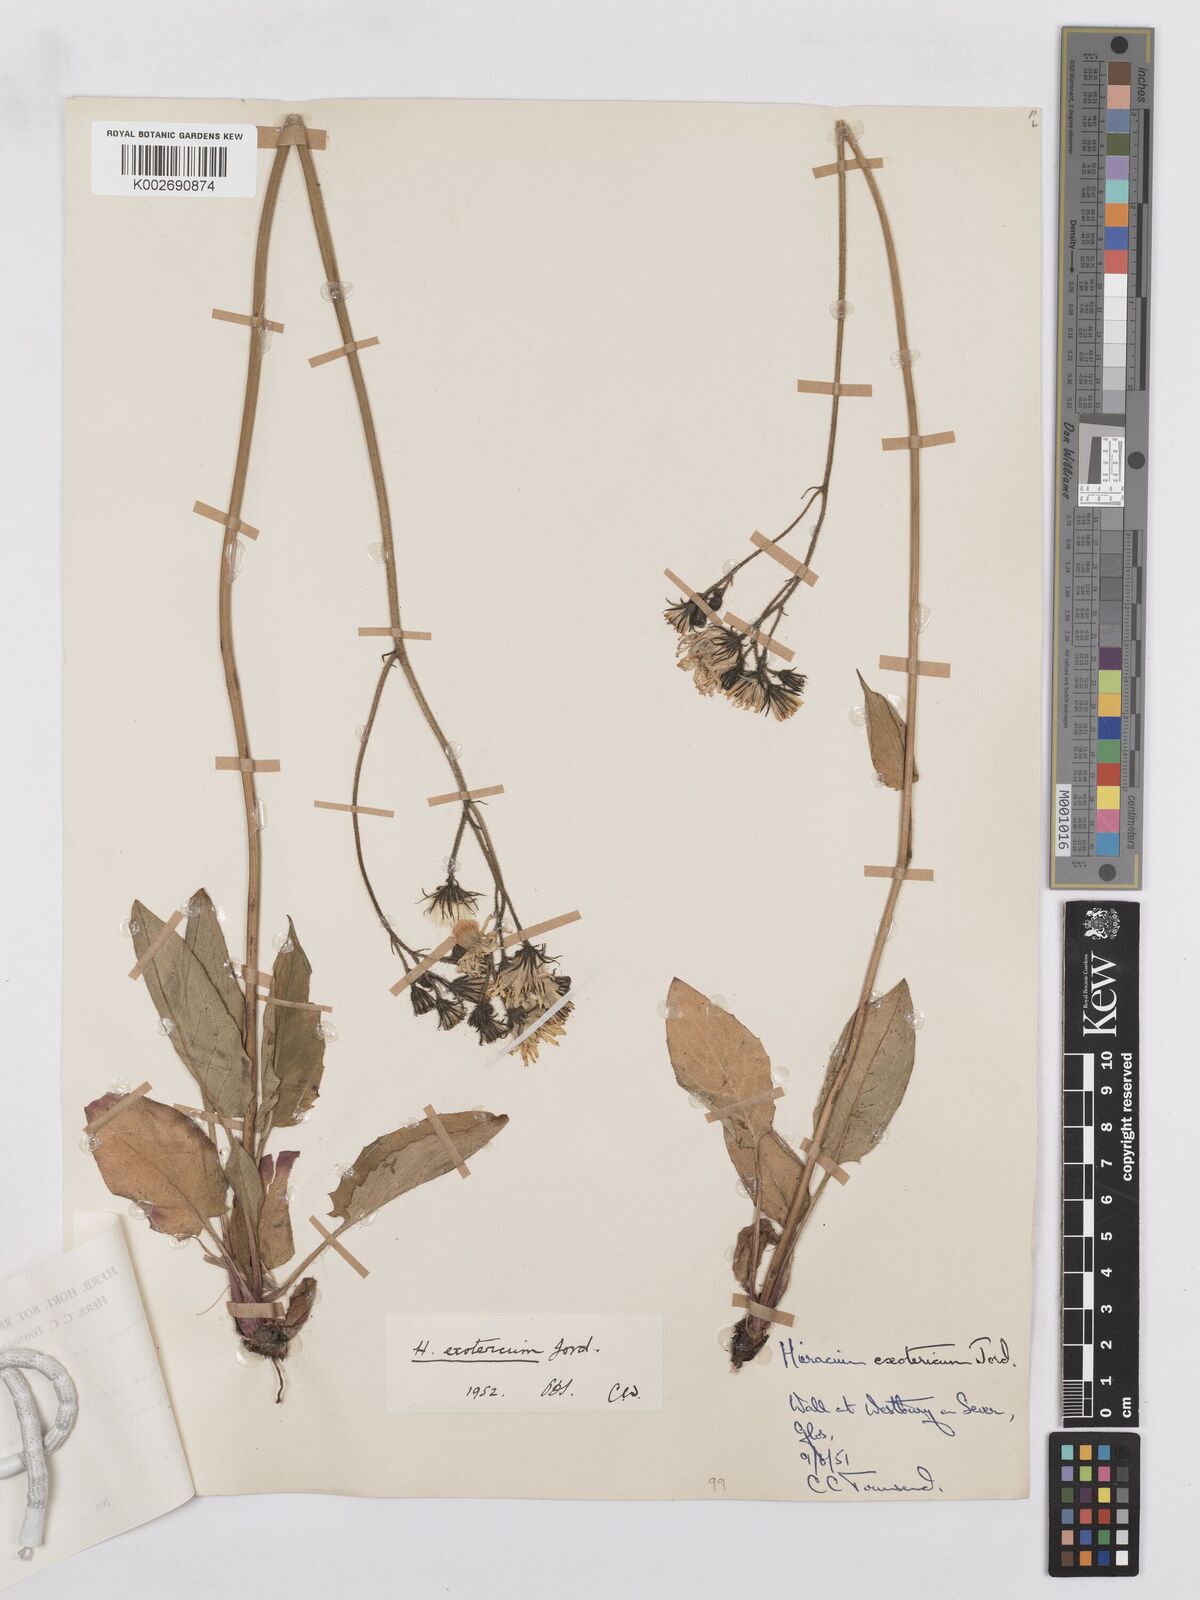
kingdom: Plantae
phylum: Tracheophyta
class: Magnoliopsida
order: Asterales
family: Asteraceae
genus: Hieracium
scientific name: Hieracium murorum
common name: Wall hawkweed
